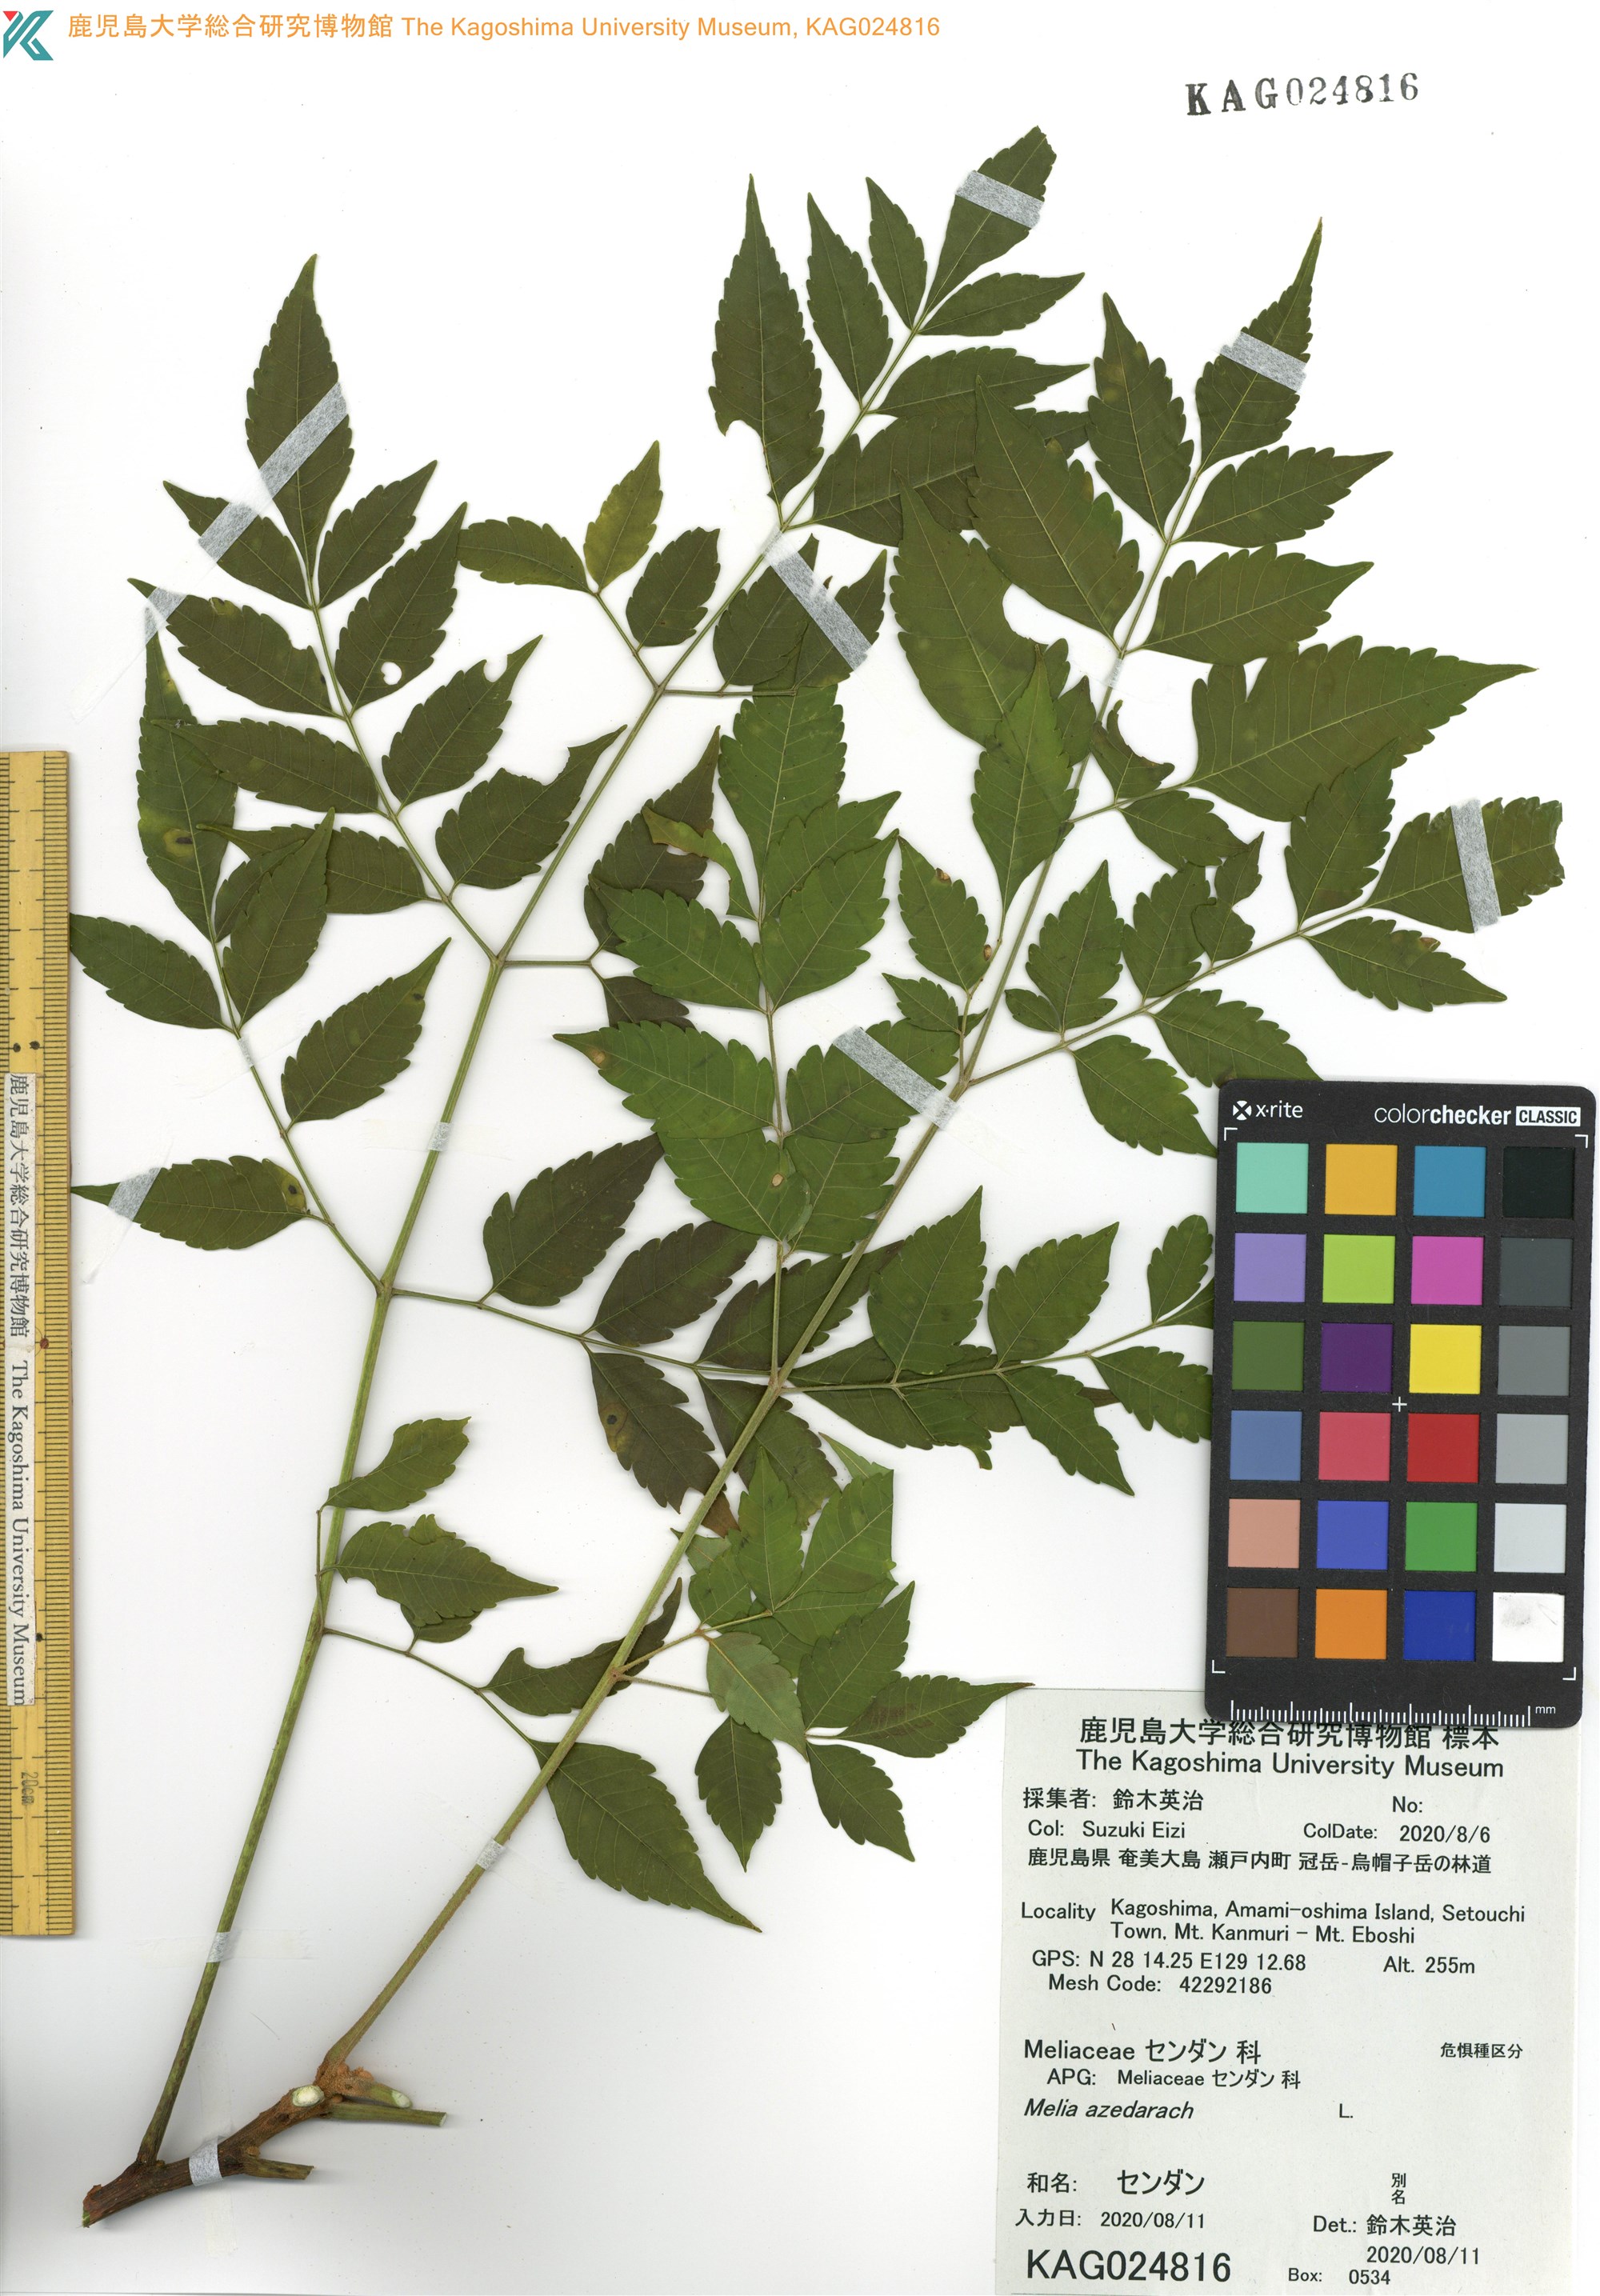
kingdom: Plantae
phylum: Tracheophyta
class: Magnoliopsida
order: Sapindales
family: Meliaceae
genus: Melia
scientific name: Melia azedarach
